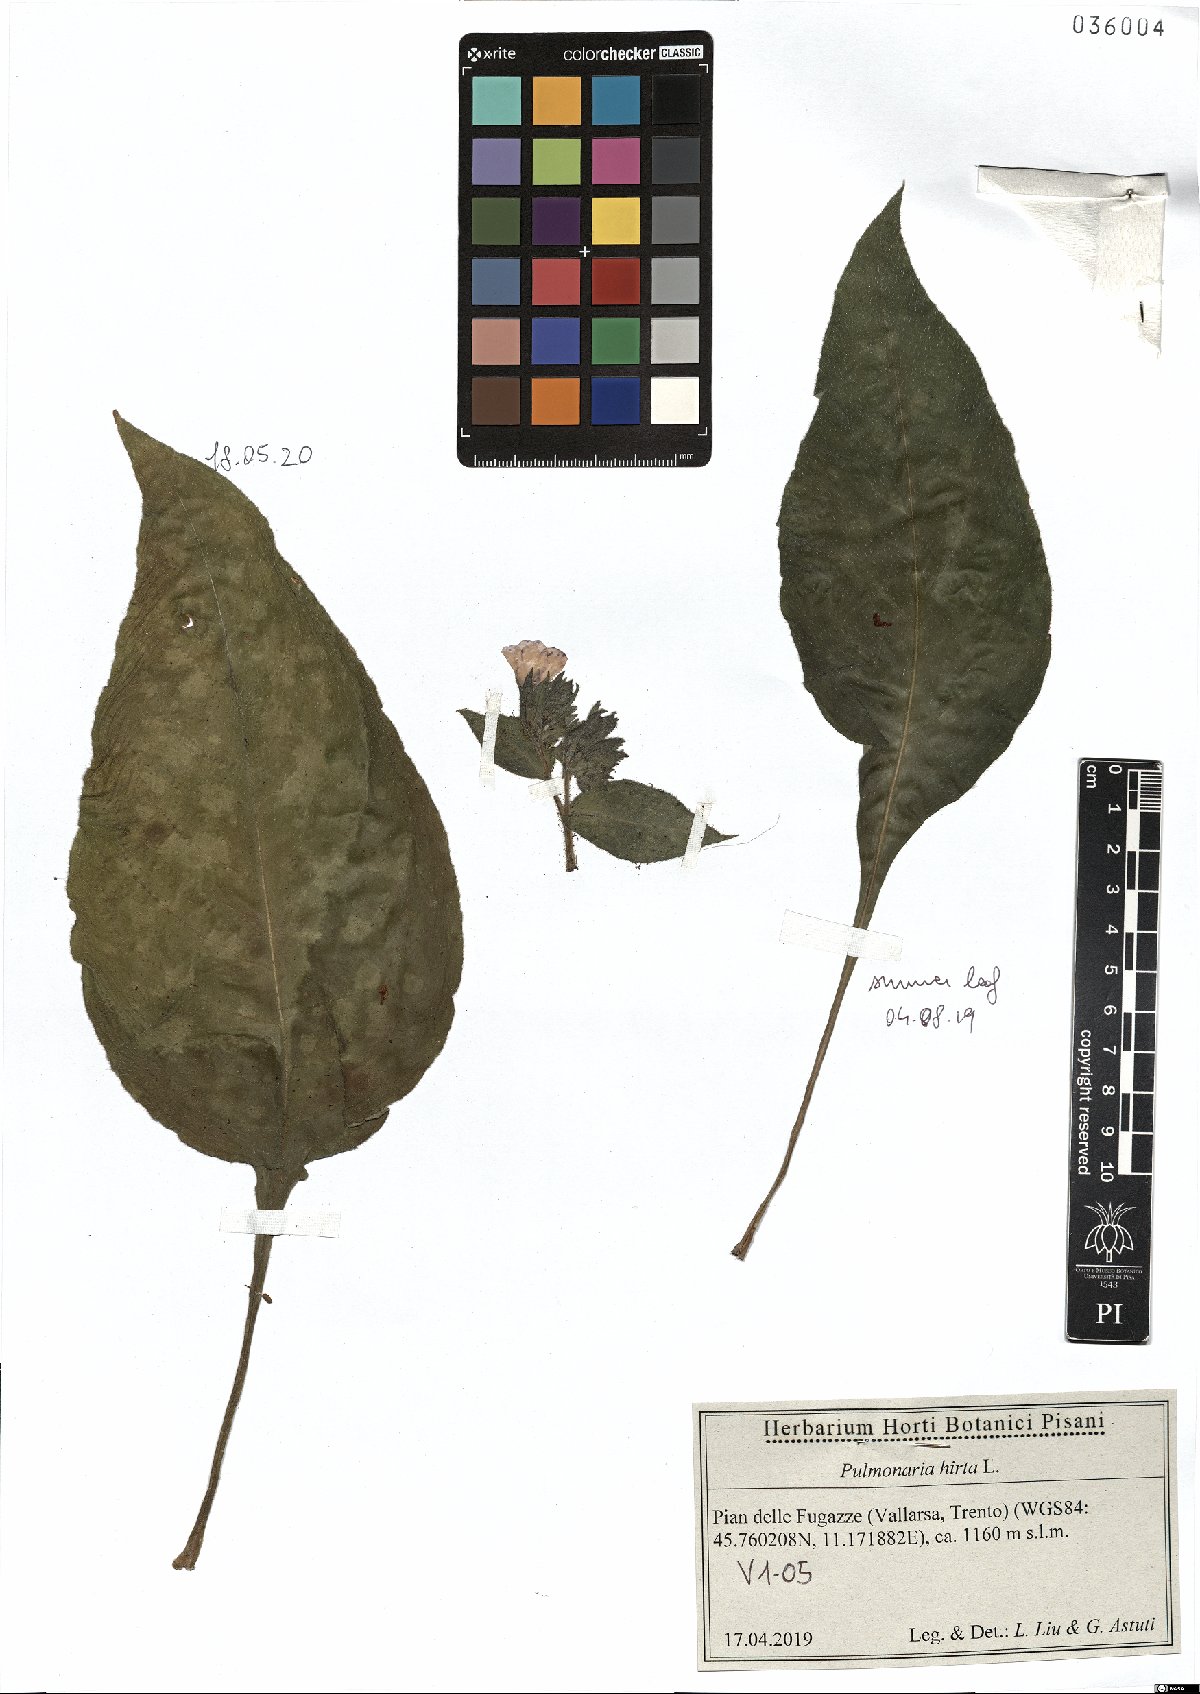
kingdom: Plantae
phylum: Tracheophyta
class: Magnoliopsida
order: Boraginales
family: Boraginaceae
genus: Pulmonaria
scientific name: Pulmonaria hirta
